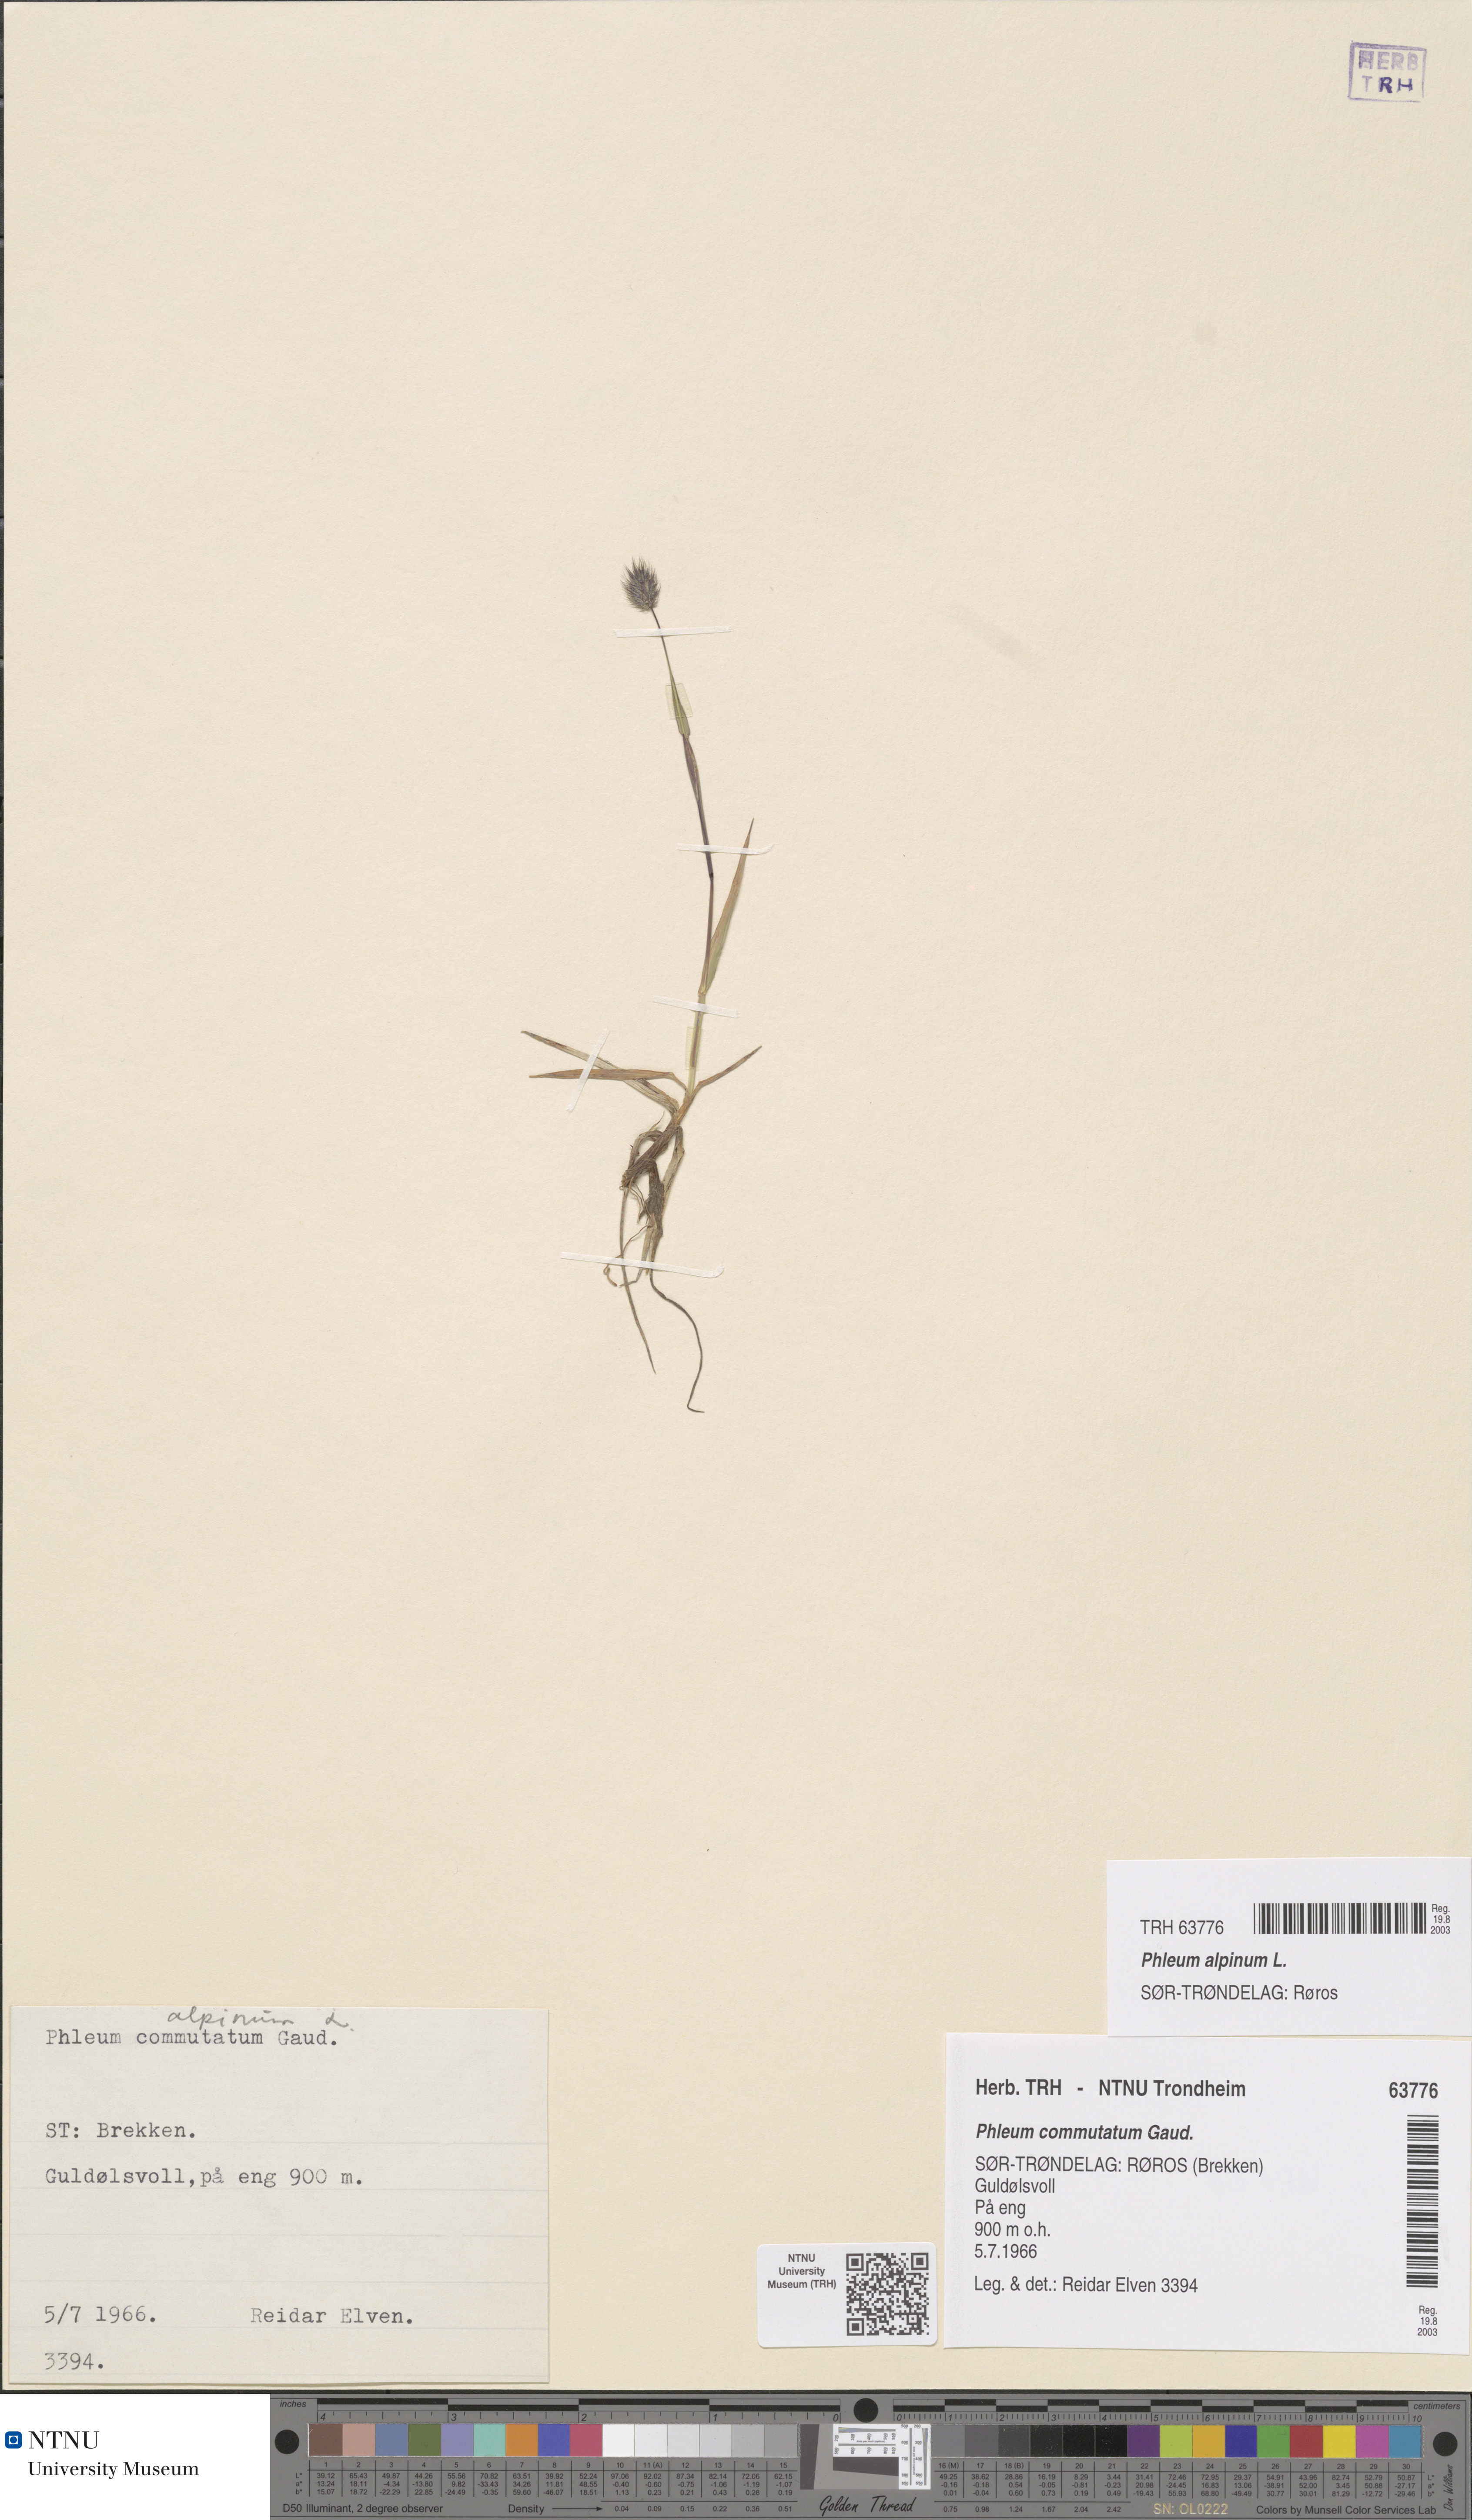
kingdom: Plantae
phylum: Tracheophyta
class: Liliopsida
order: Poales
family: Poaceae
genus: Phleum
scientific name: Phleum alpinum
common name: Alpine cat's-tail
